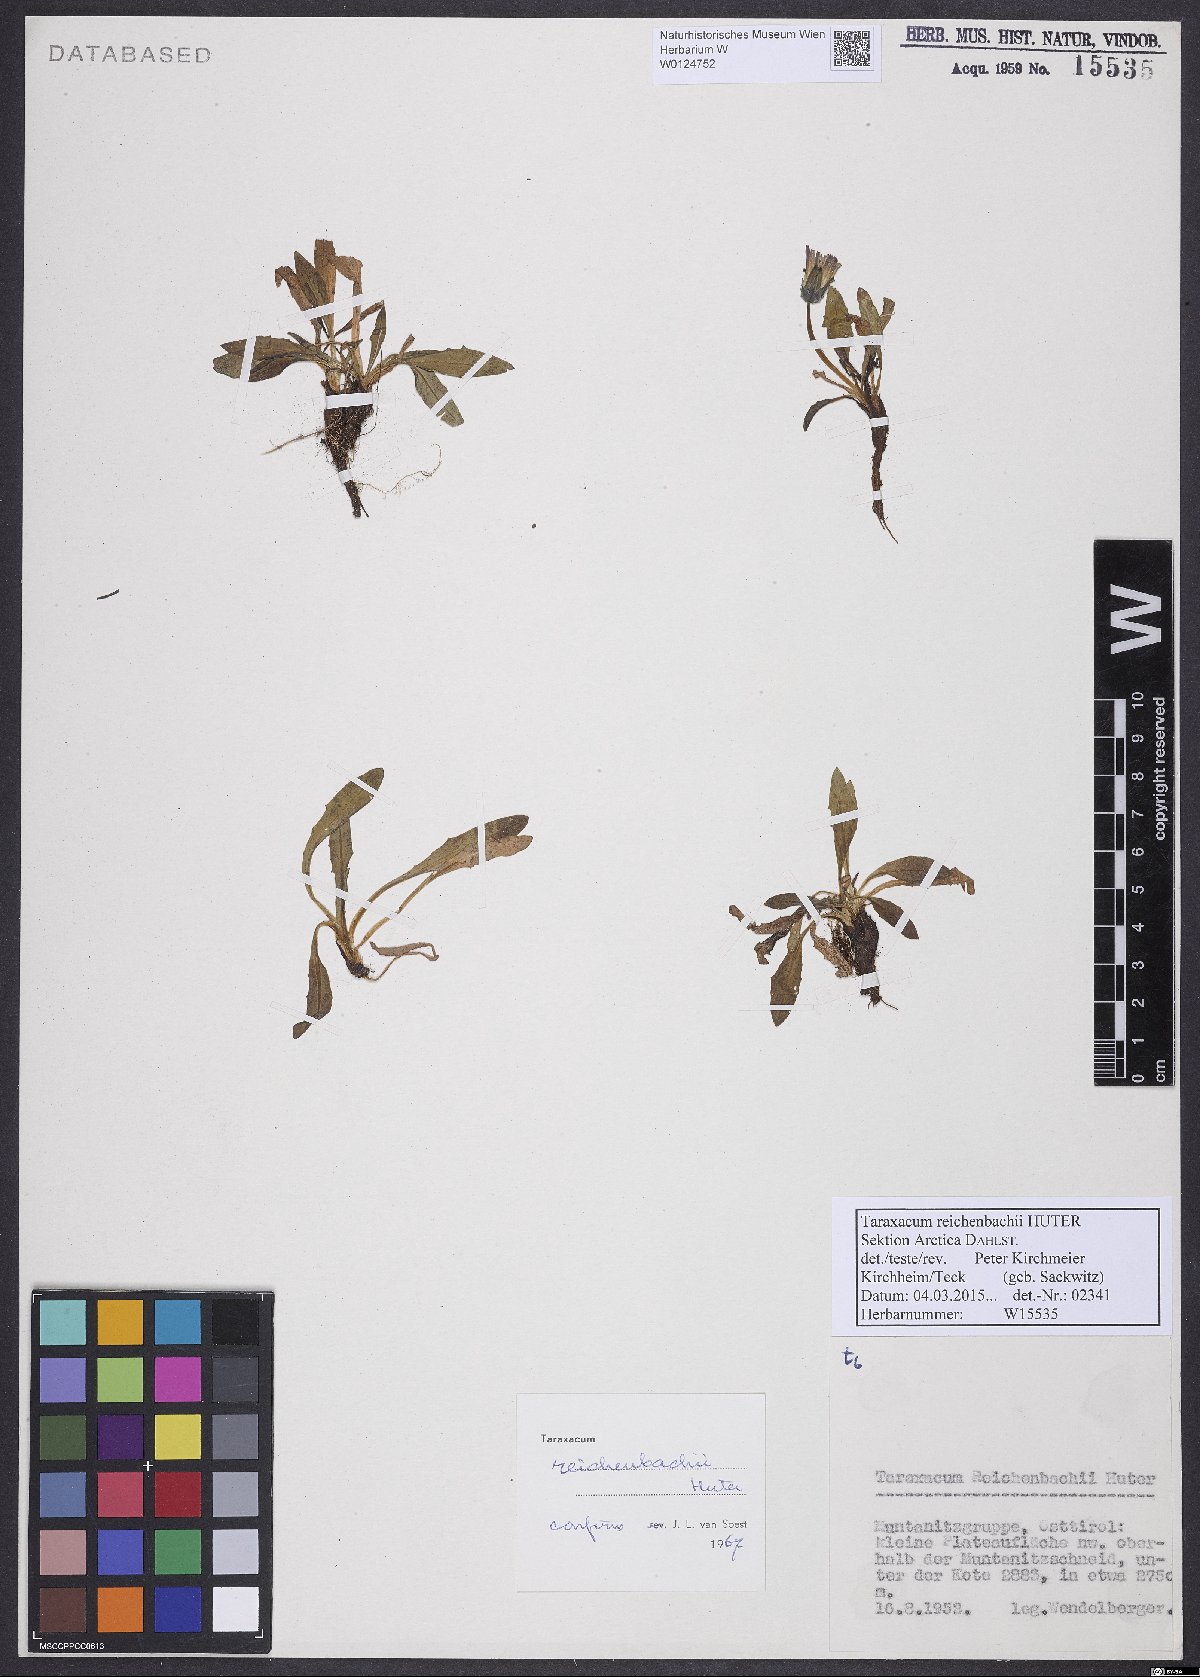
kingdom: Plantae
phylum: Tracheophyta
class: Magnoliopsida
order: Asterales
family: Asteraceae
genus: Taraxacum
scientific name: Taraxacum reichenbachii
